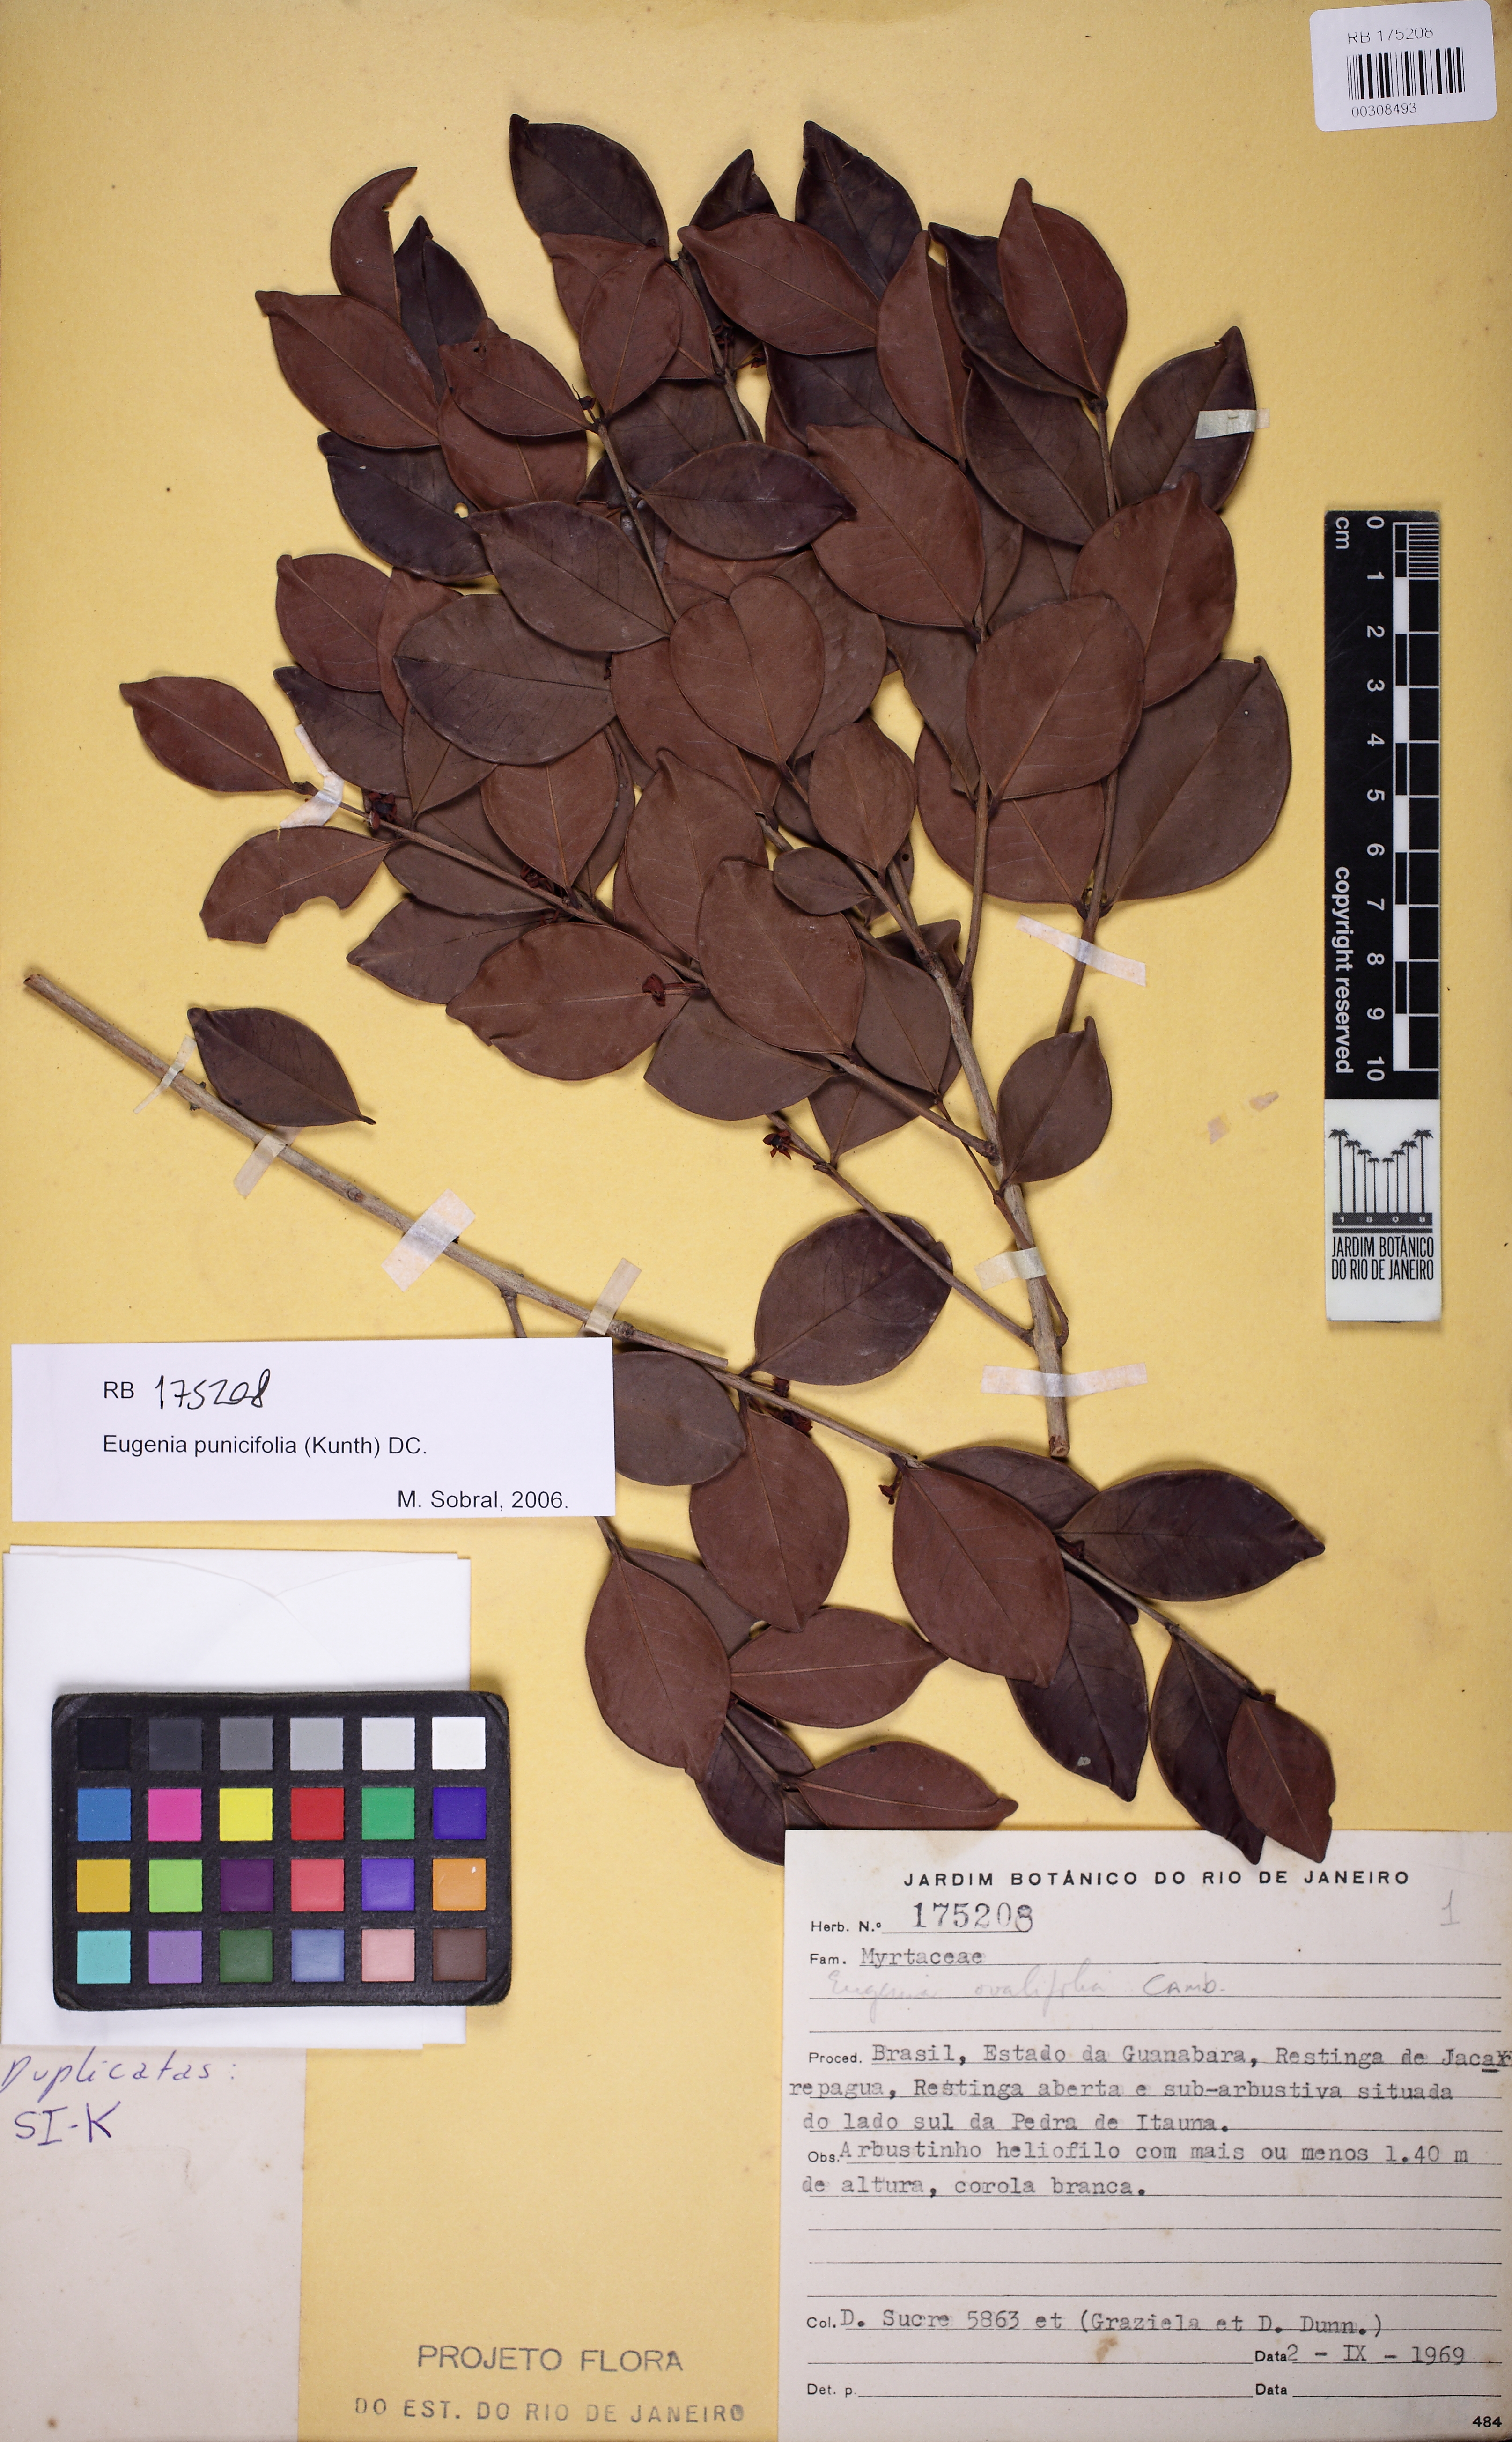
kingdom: Plantae
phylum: Tracheophyta
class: Magnoliopsida
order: Myrtales
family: Myrtaceae
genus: Eugenia
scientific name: Eugenia punicifolia
